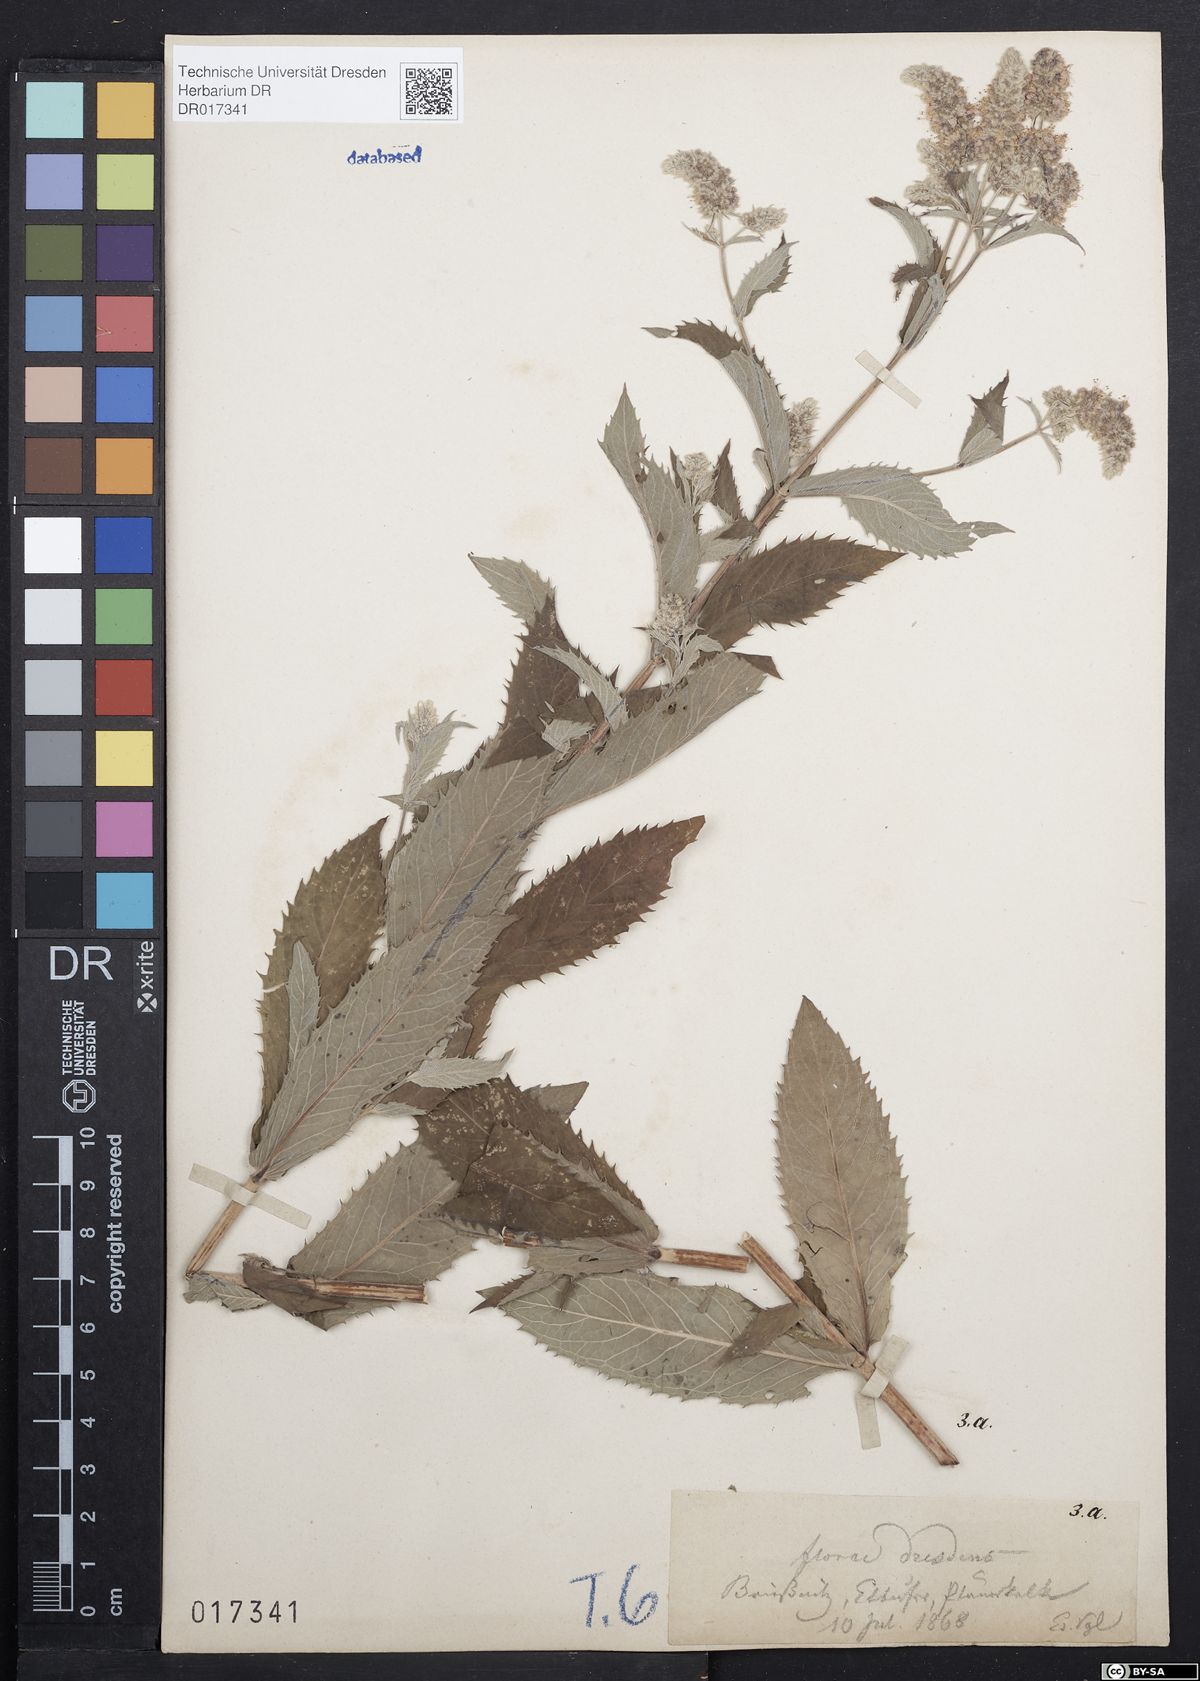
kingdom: Plantae
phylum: Tracheophyta
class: Magnoliopsida
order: Lamiales
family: Lamiaceae
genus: Mentha
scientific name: Mentha longifolia
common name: Horse mint
